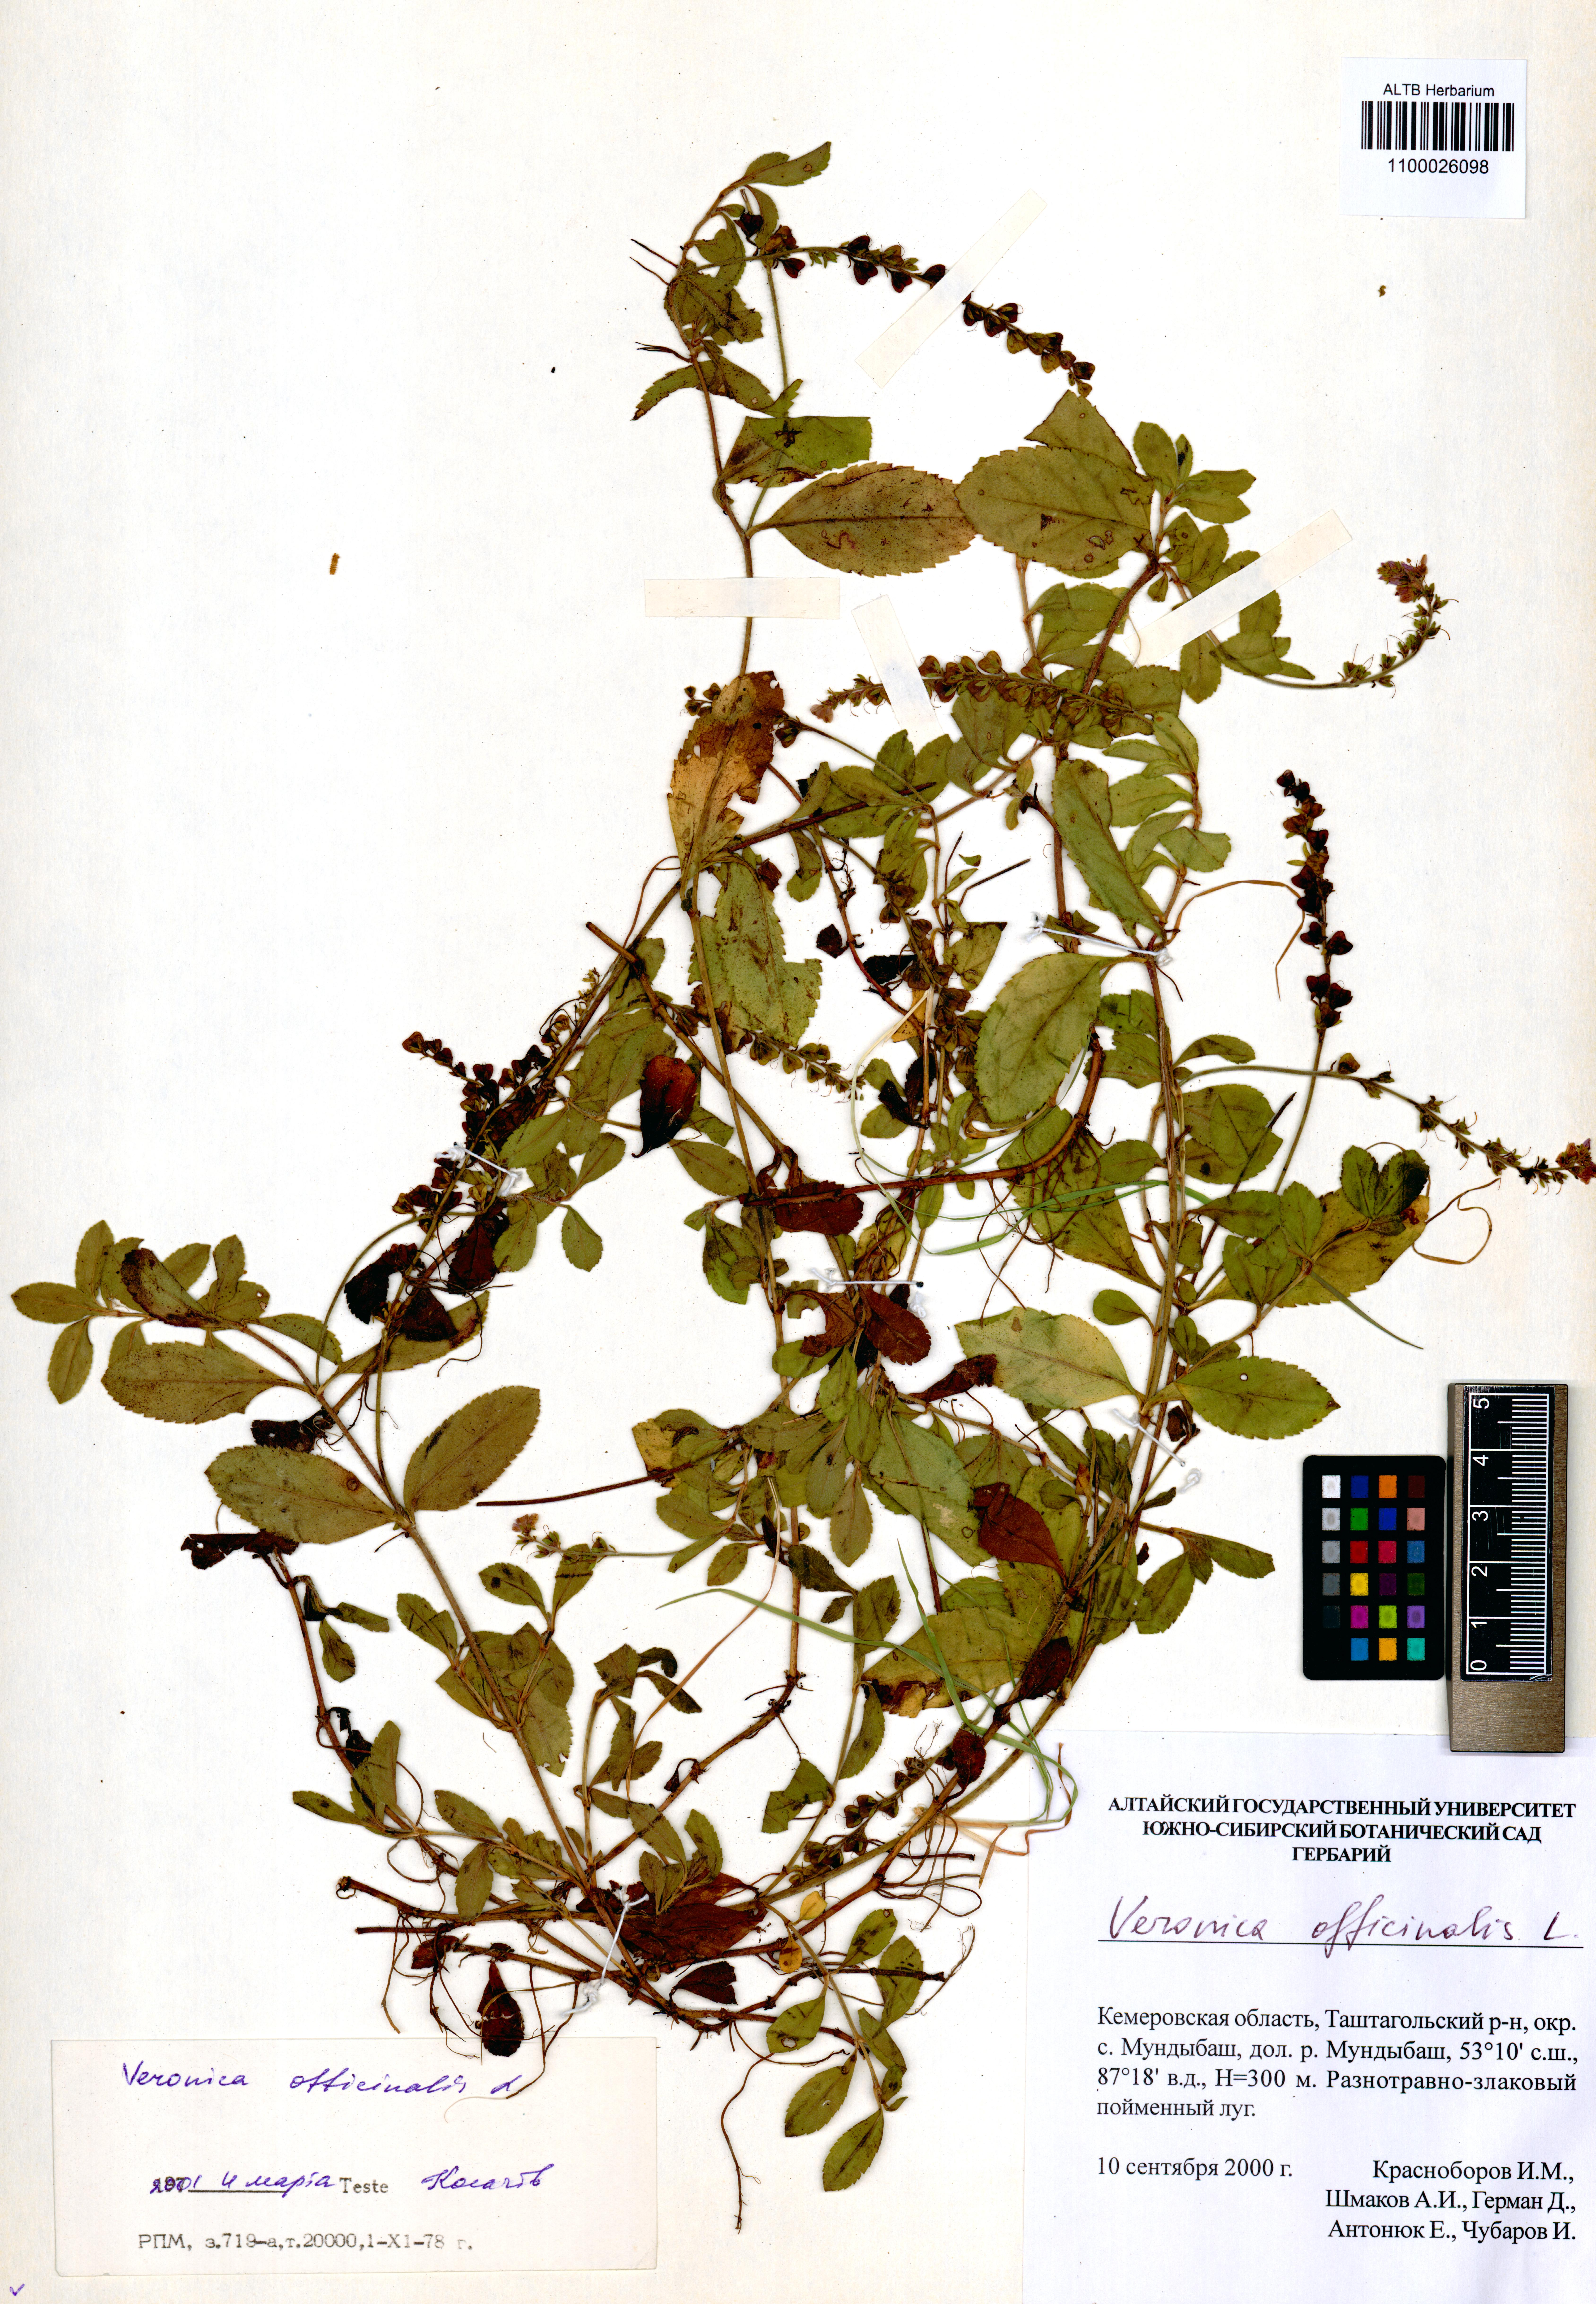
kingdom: Plantae
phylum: Tracheophyta
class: Magnoliopsida
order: Lamiales
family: Plantaginaceae
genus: Veronica
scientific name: Veronica officinalis
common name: Common speedwell
